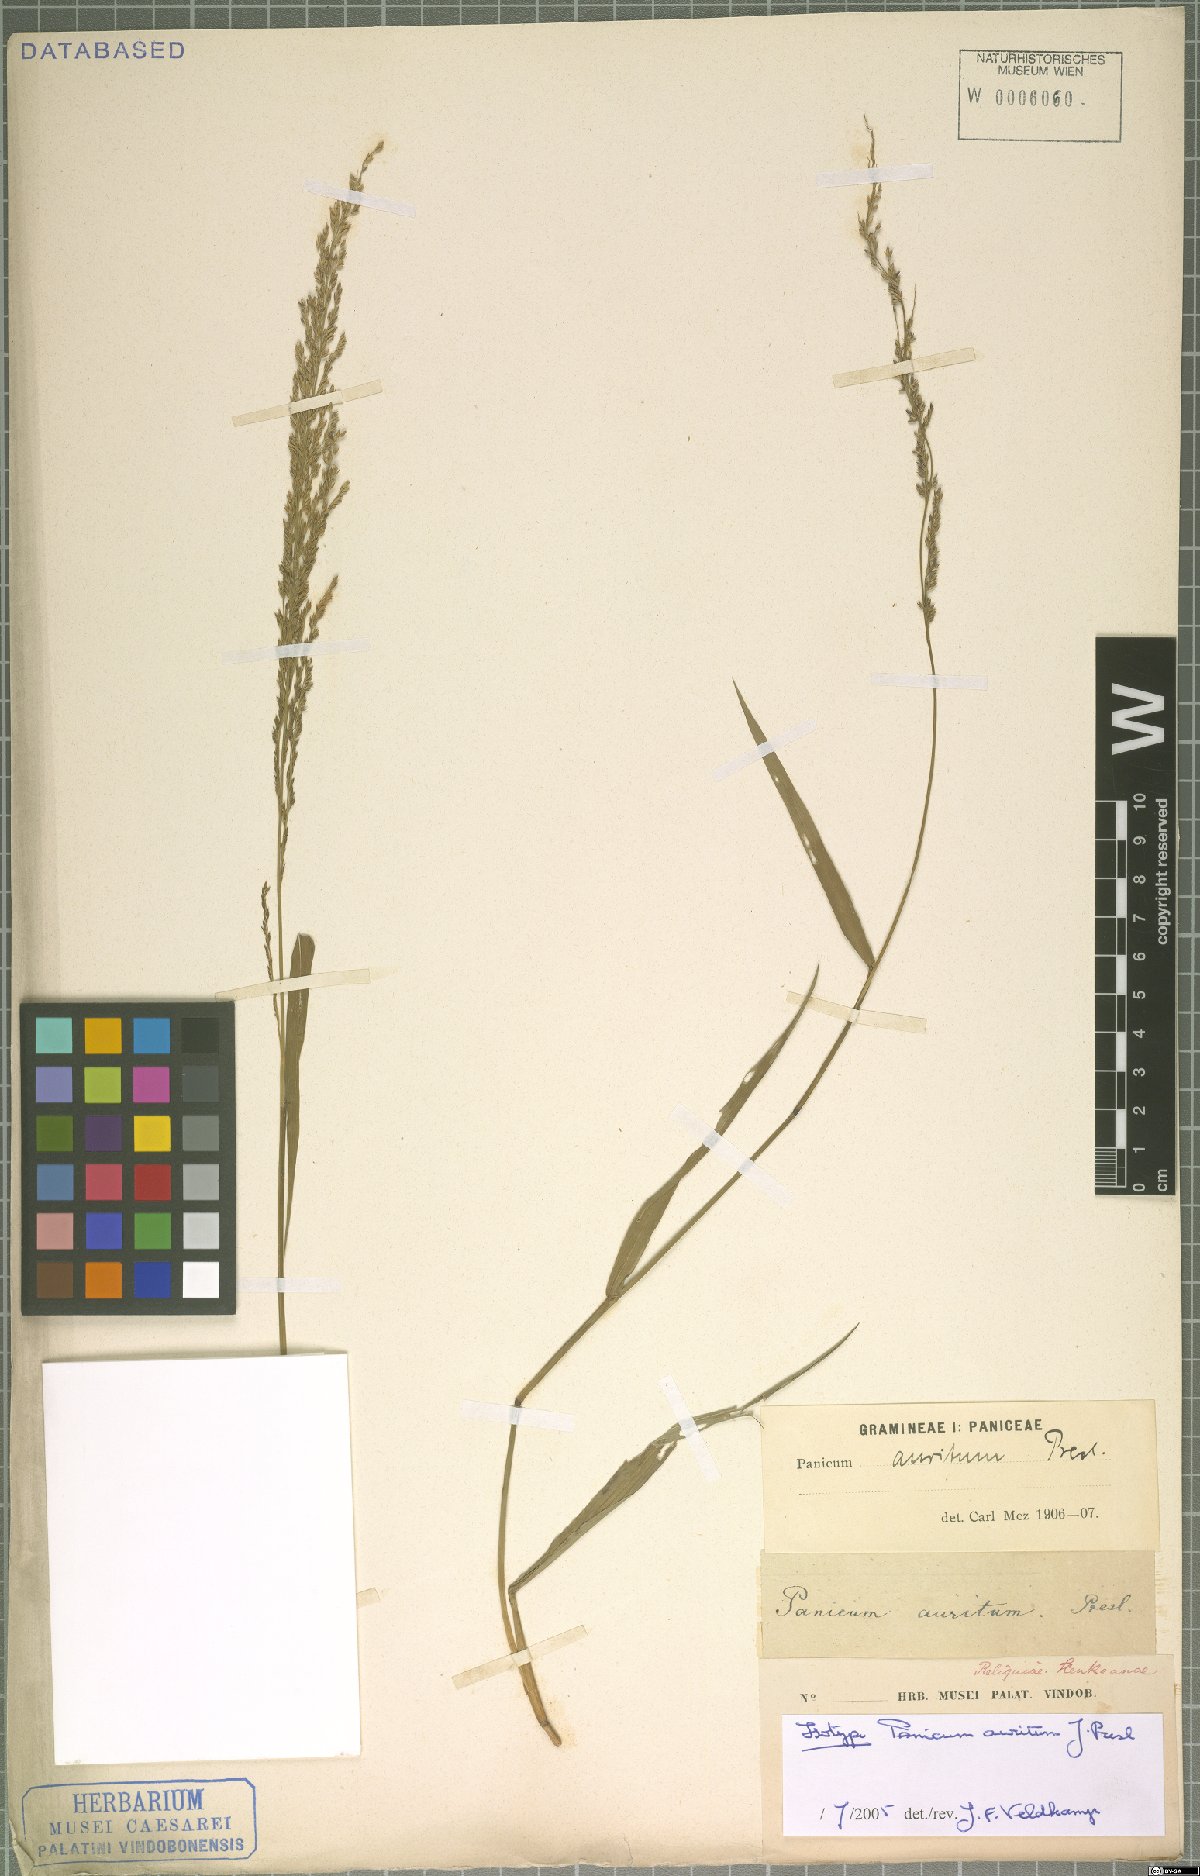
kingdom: Plantae
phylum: Tracheophyta
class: Liliopsida
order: Poales
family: Poaceae
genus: Hymenachne
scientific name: Hymenachne aurita
